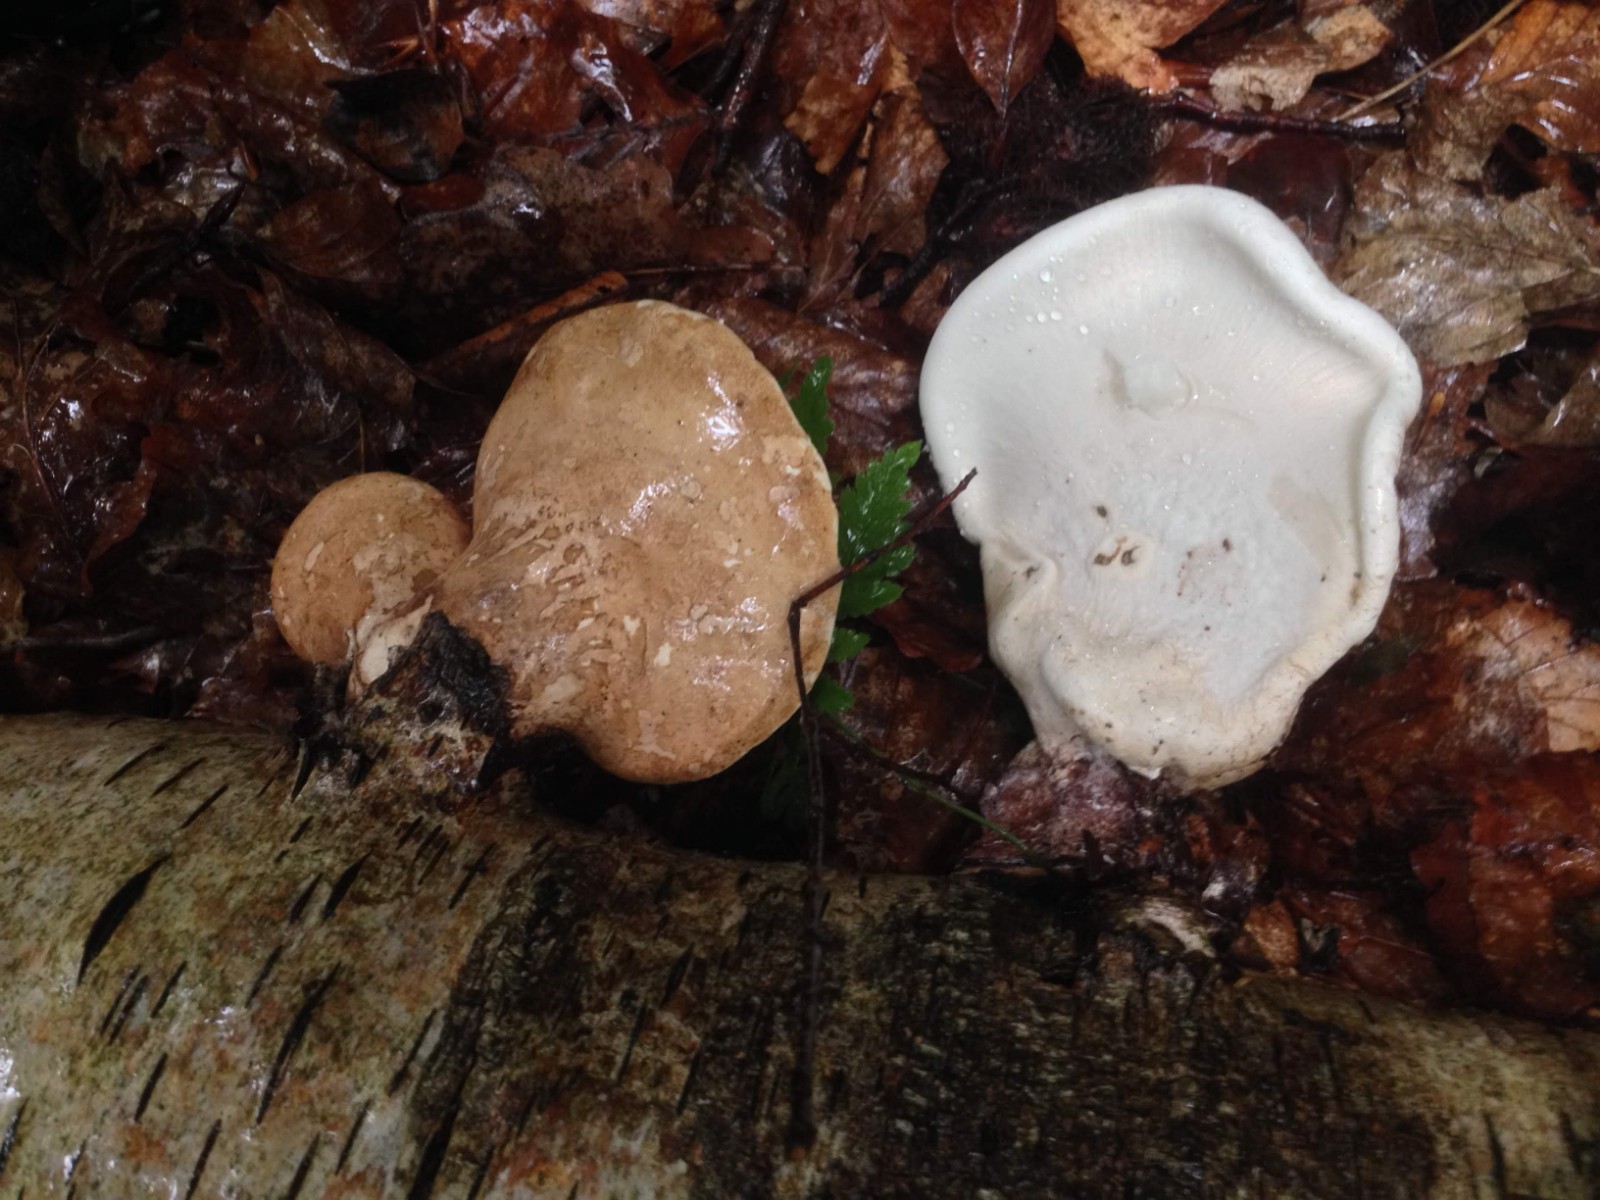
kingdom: Fungi
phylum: Basidiomycota
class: Agaricomycetes
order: Polyporales
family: Fomitopsidaceae
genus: Fomitopsis
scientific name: Fomitopsis betulina
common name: birkeporesvamp
